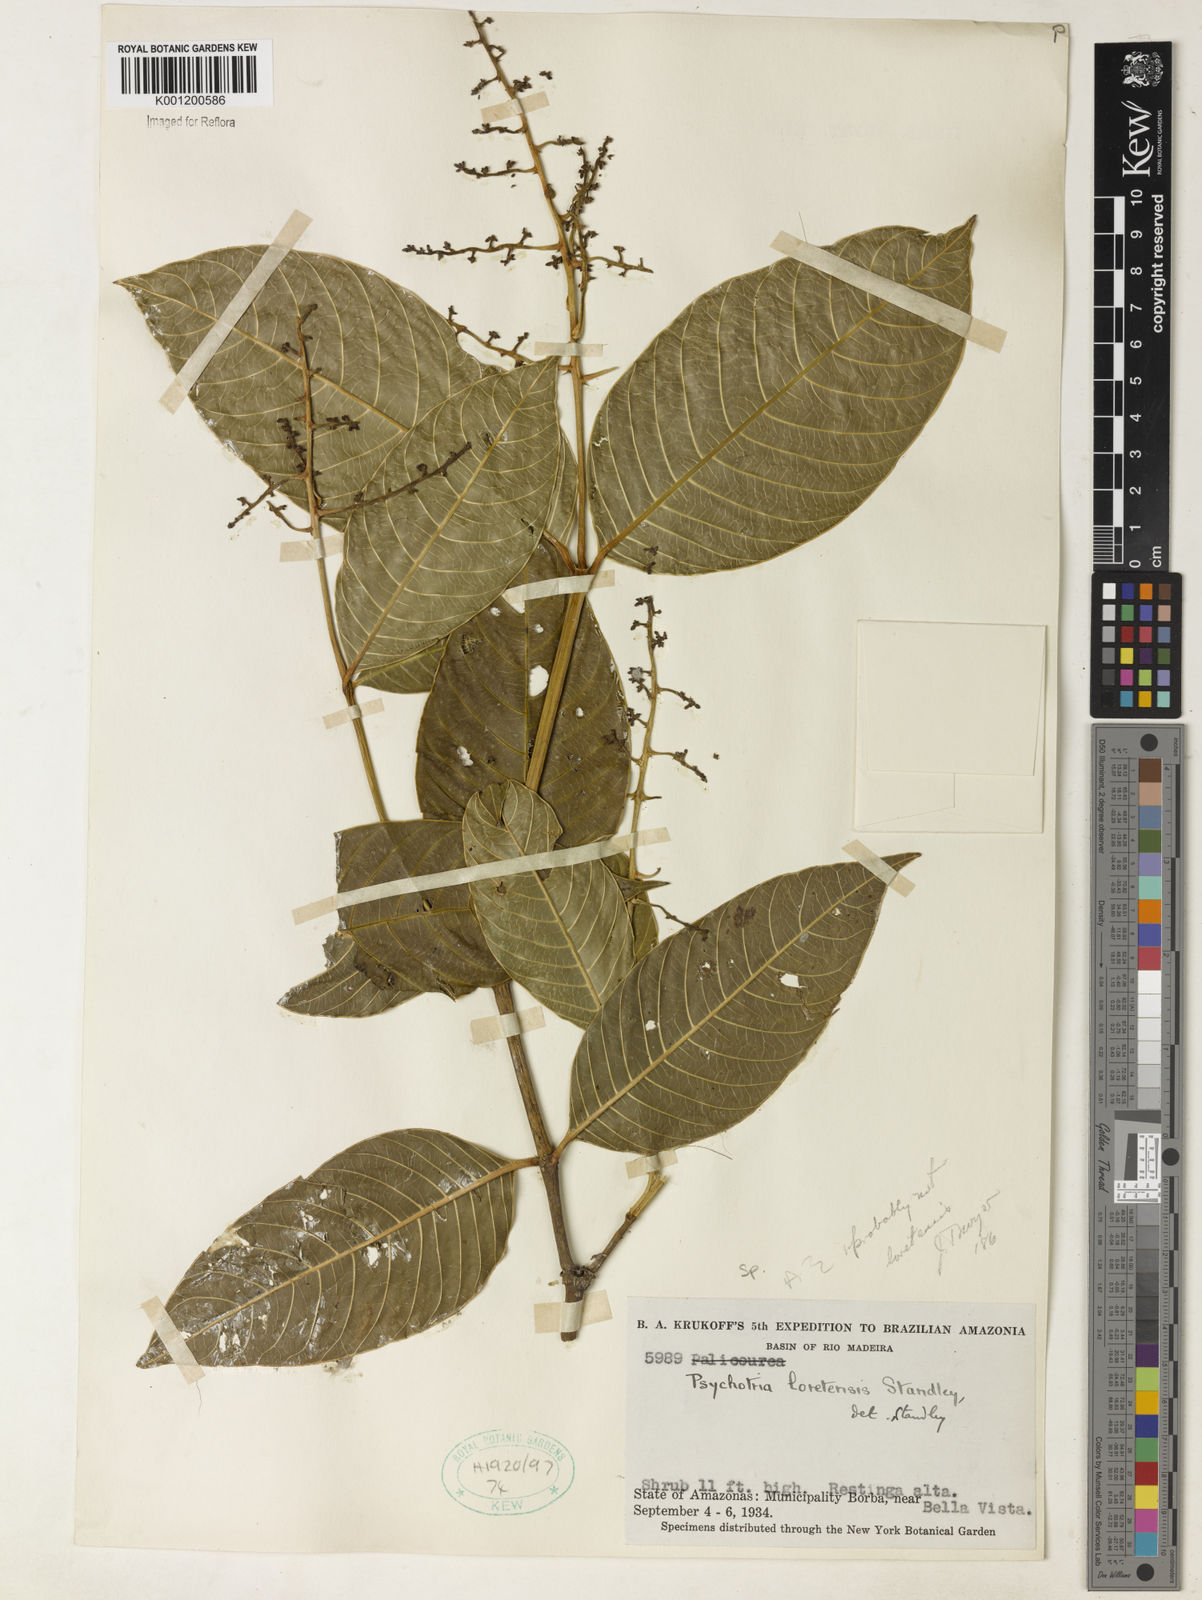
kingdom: Plantae
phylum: Tracheophyta
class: Magnoliopsida
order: Gentianales
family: Rubiaceae
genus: Psychotria
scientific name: Psychotria
